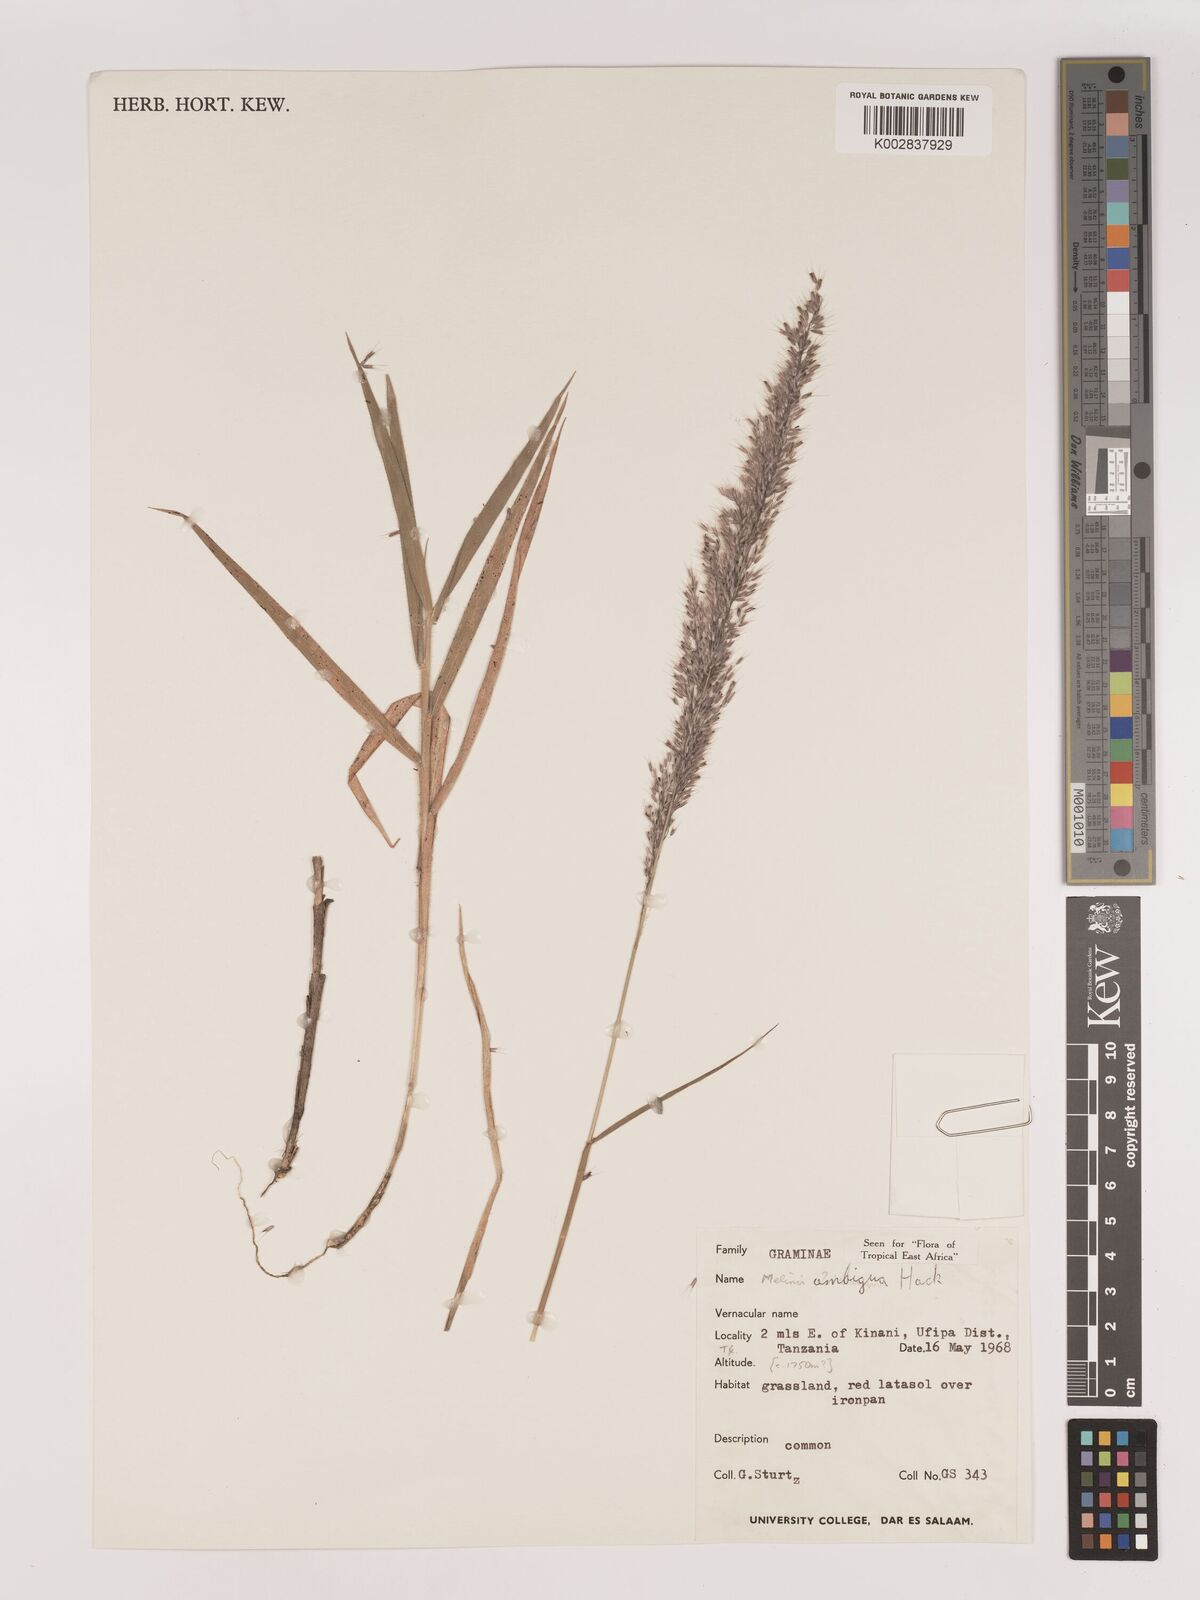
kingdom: Plantae
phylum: Tracheophyta
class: Liliopsida
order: Poales
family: Poaceae
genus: Melinis
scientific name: Melinis ambigua
